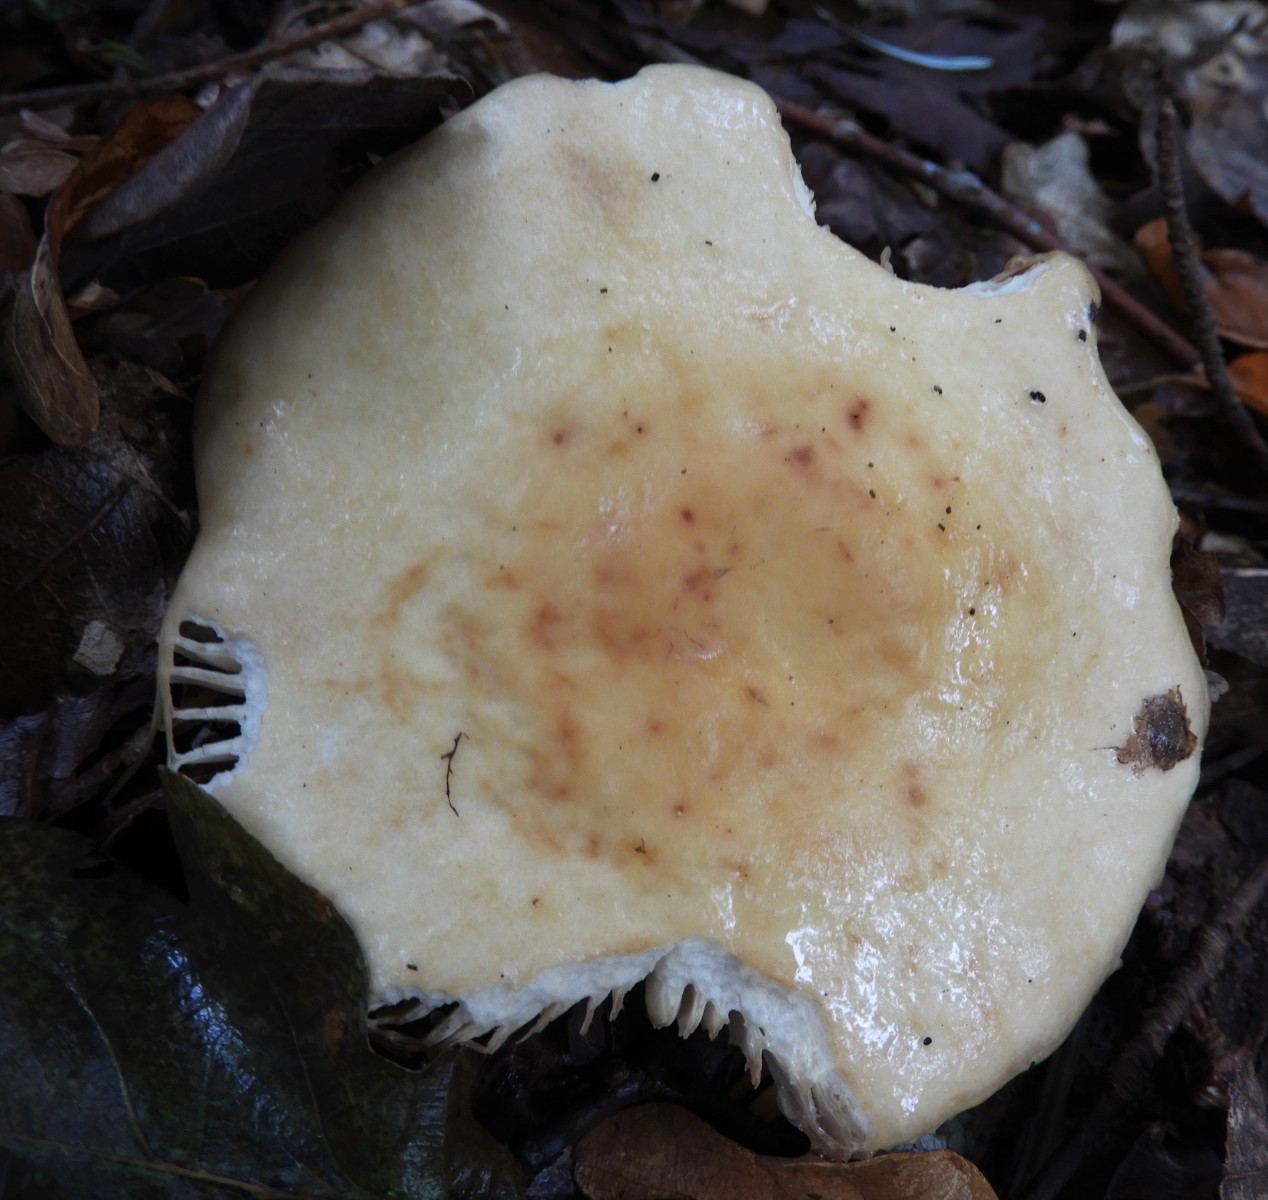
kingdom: Fungi
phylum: Basidiomycota
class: Agaricomycetes
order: Russulales
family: Russulaceae
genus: Russula
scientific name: Russula fellea
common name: galde-skørhat
